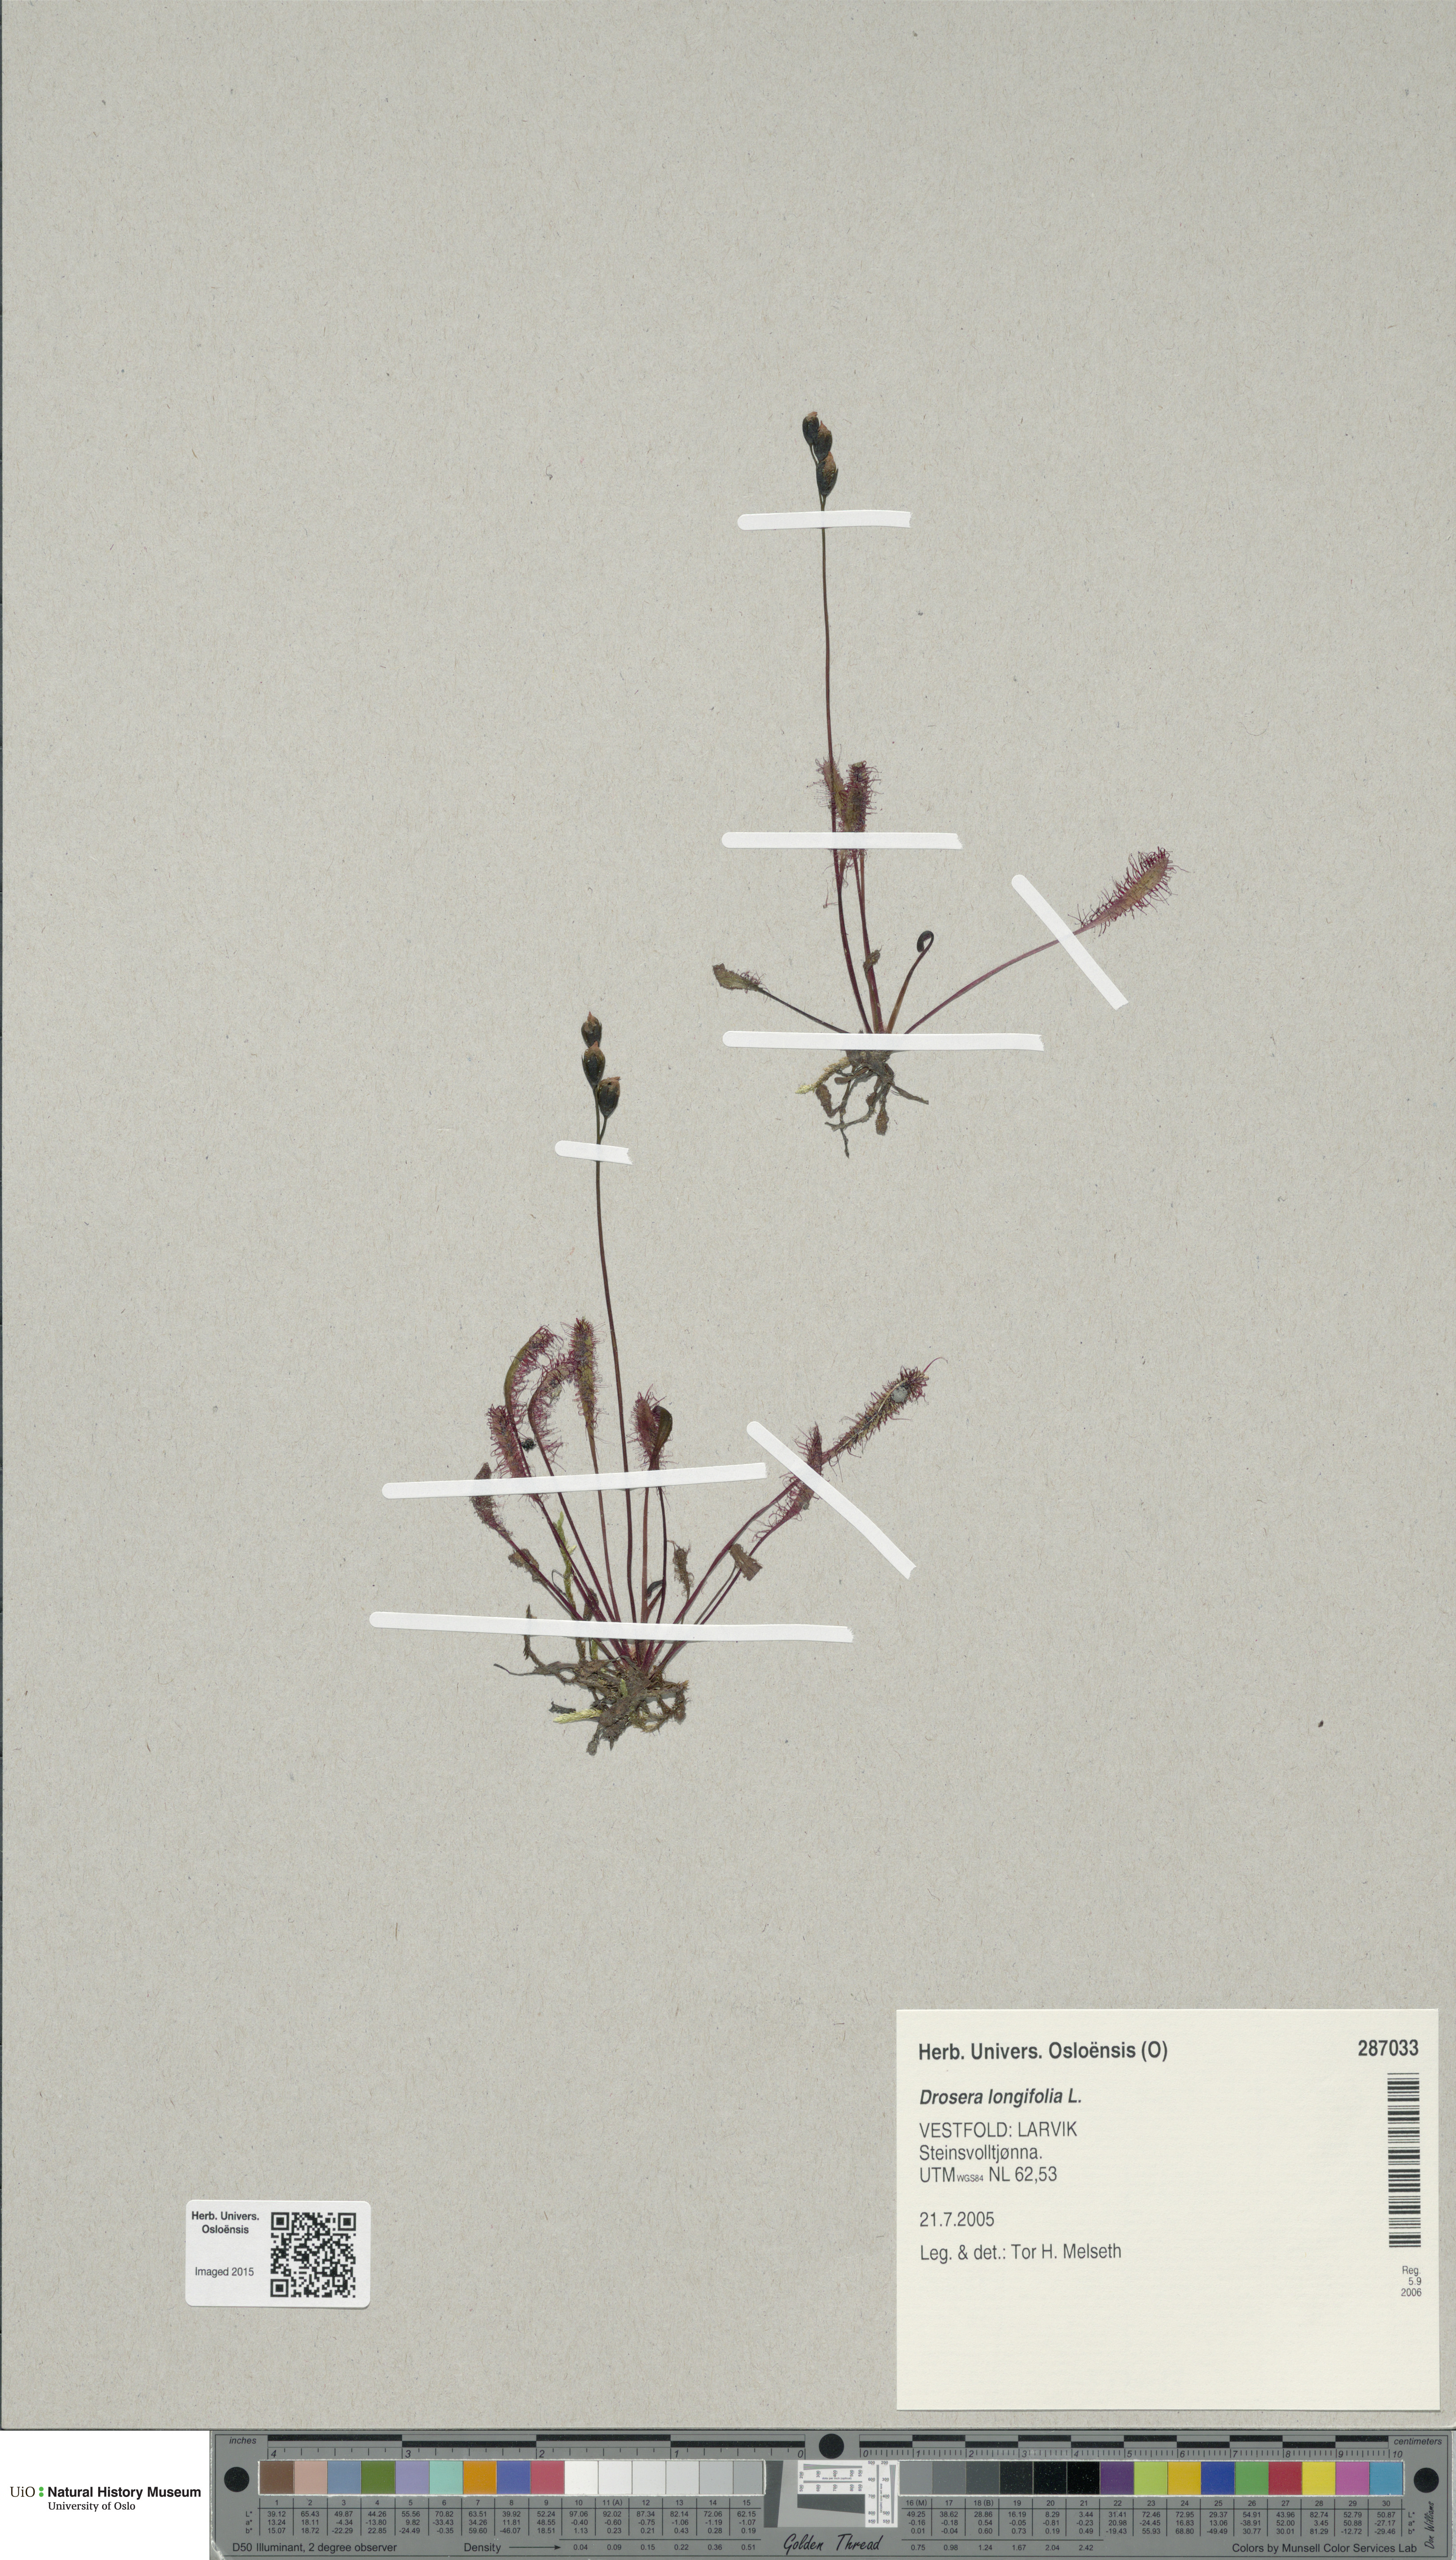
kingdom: Plantae
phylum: Tracheophyta
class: Magnoliopsida
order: Caryophyllales
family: Droseraceae
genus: Drosera
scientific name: Drosera anglica
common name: Great sundew
